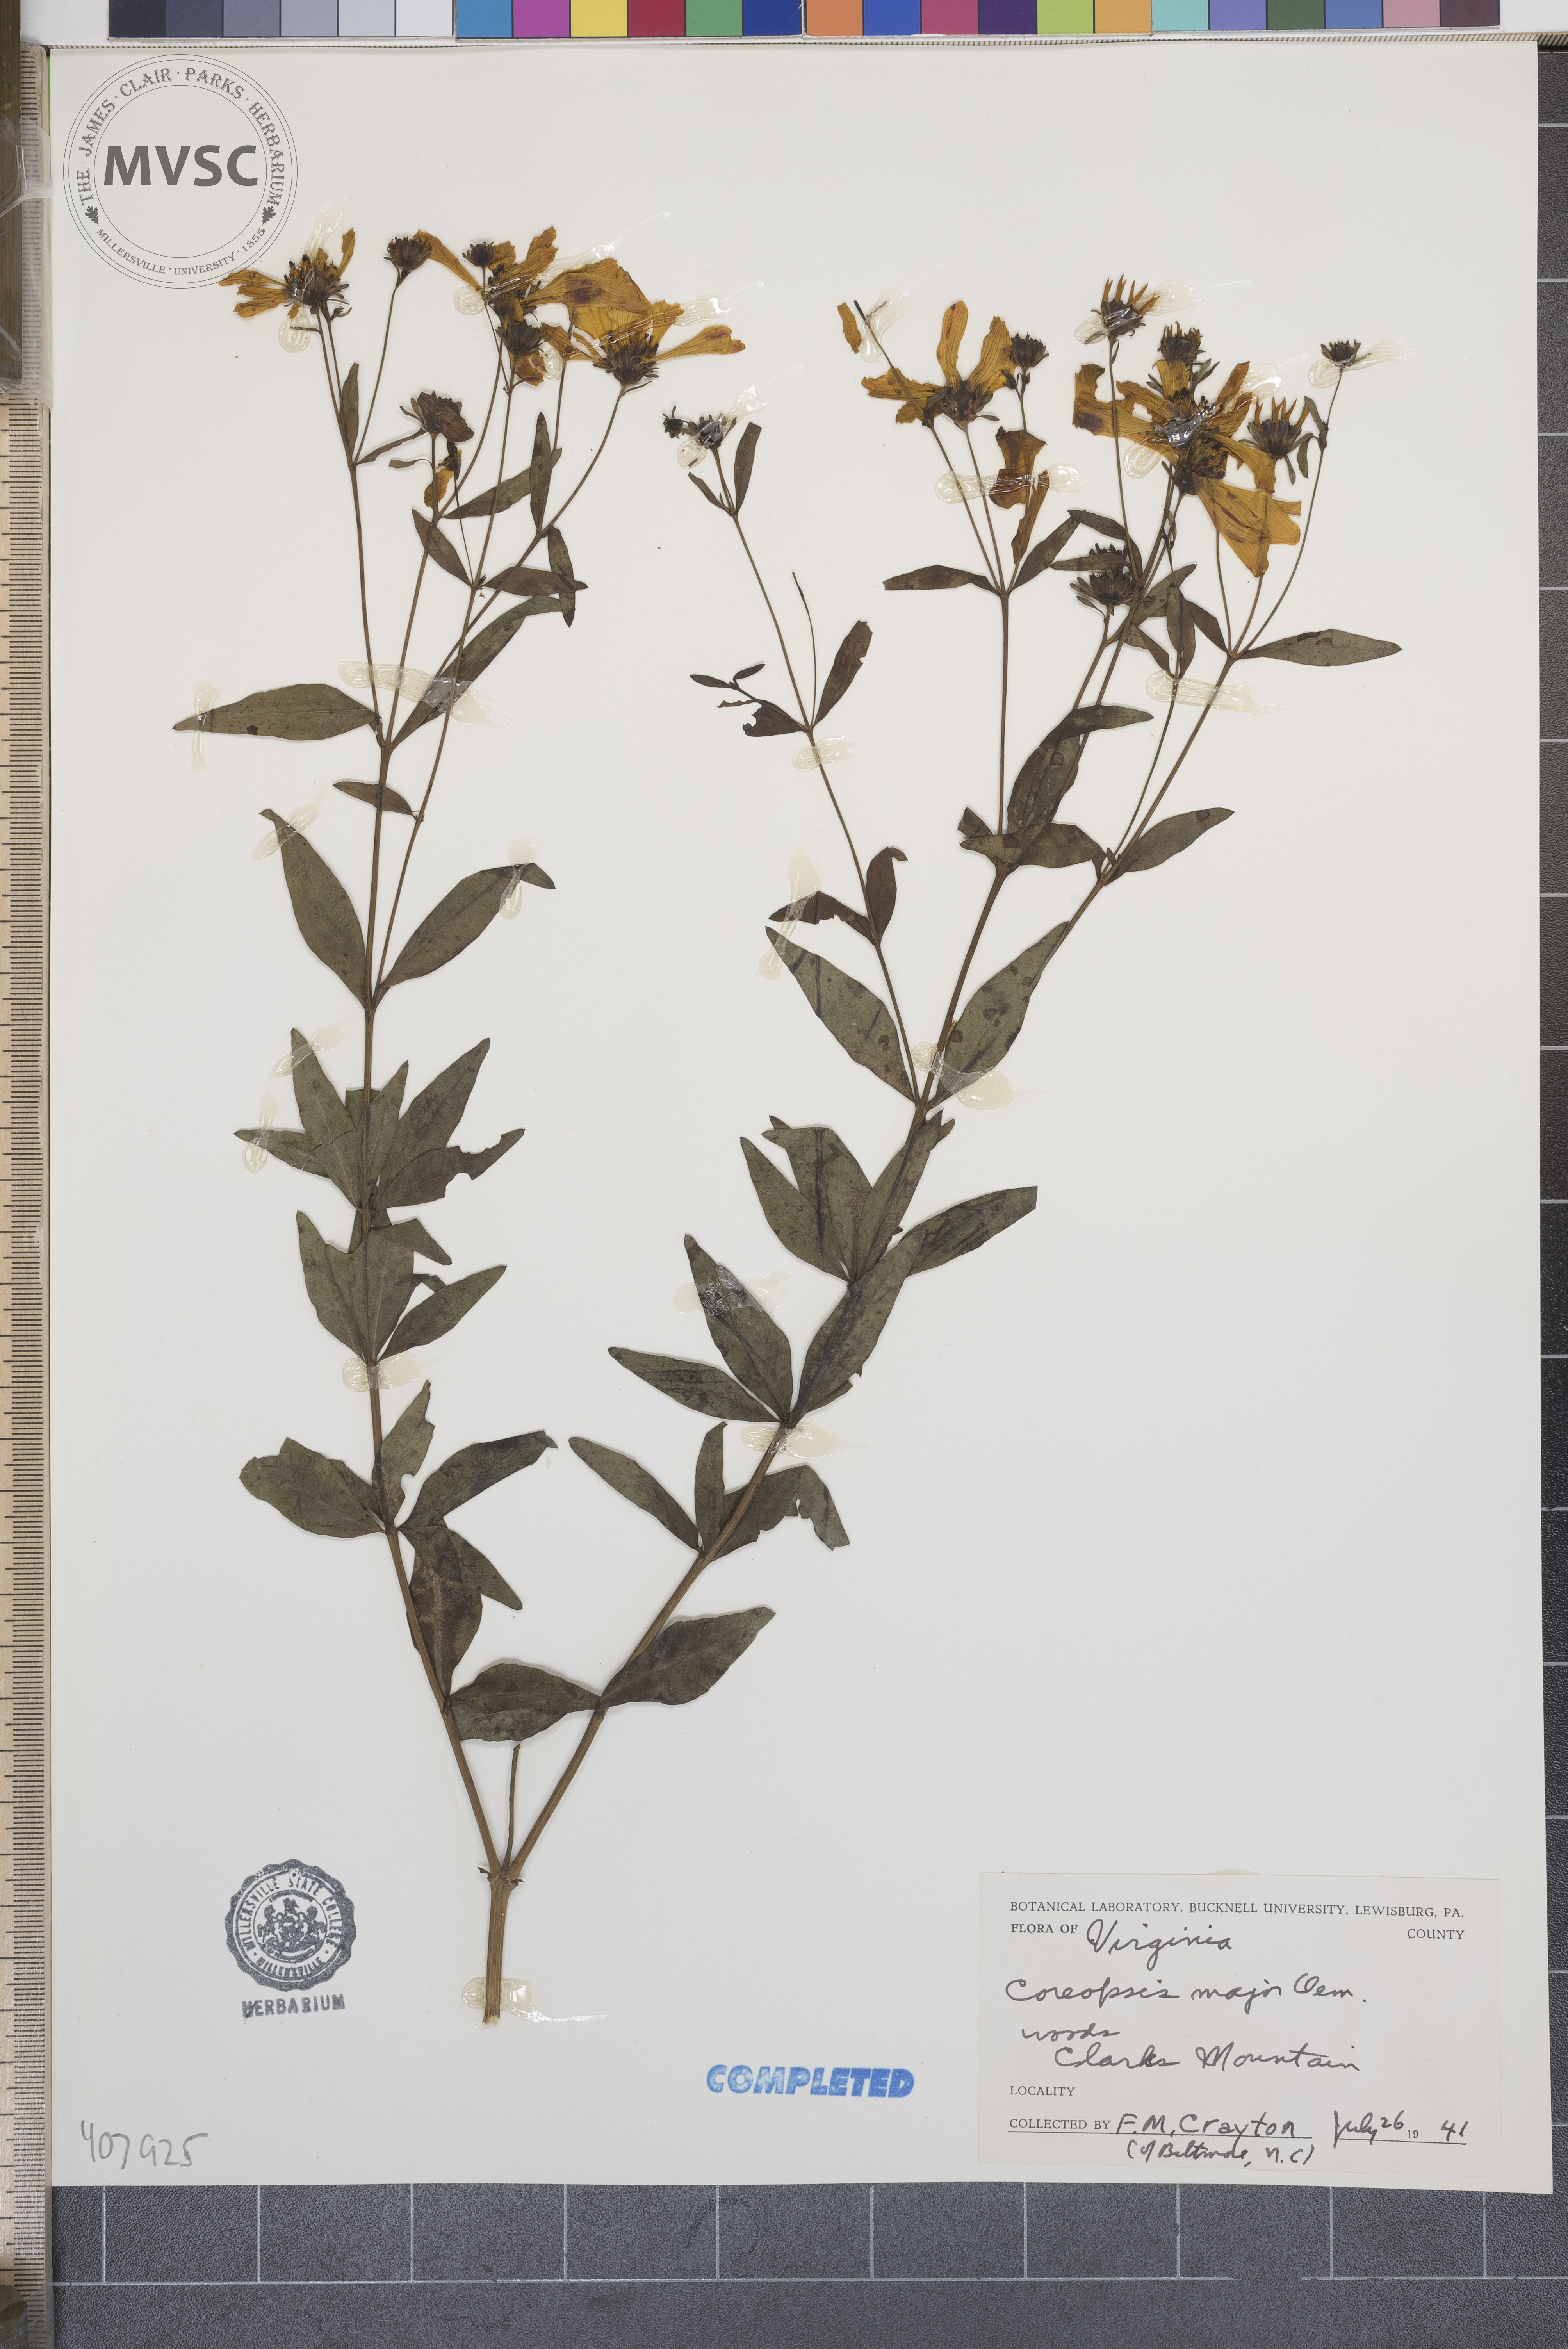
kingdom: Plantae
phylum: Tracheophyta
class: Magnoliopsida
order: Asterales
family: Asteraceae
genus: Coreopsis
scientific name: Coreopsis major
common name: Forest tickseed
